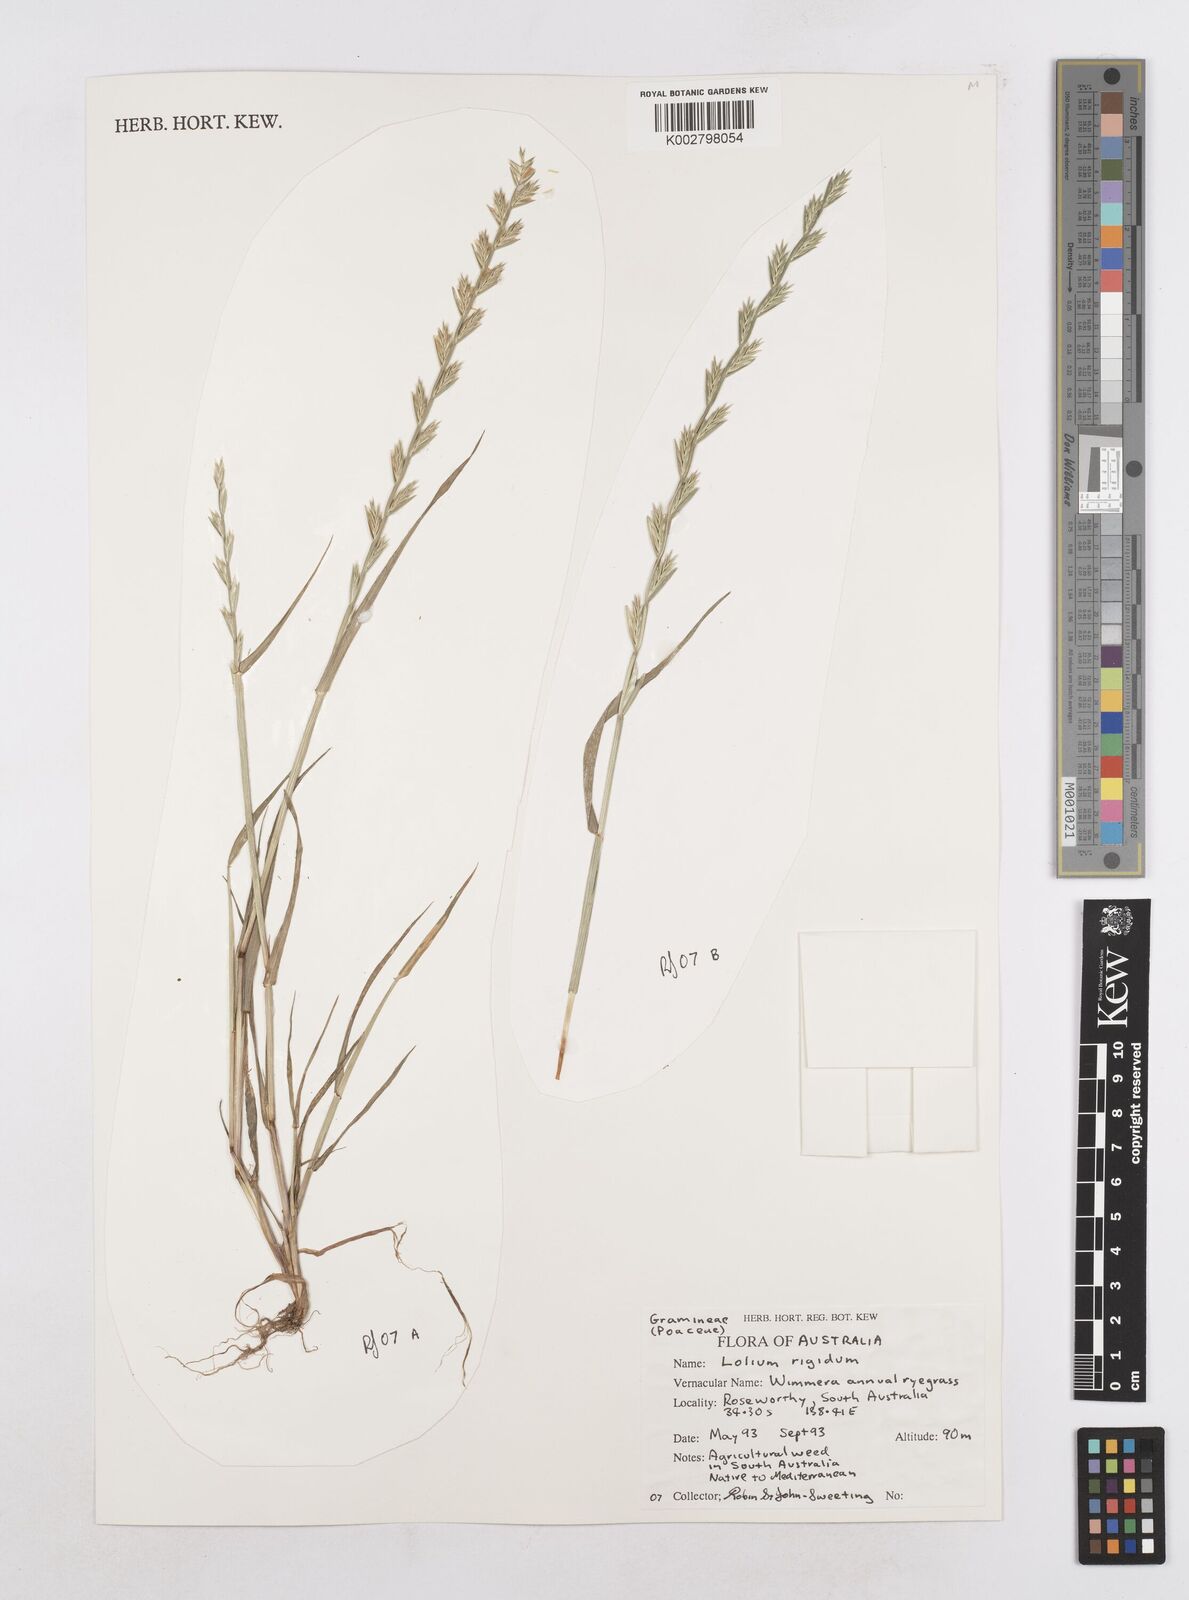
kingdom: Plantae
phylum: Tracheophyta
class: Liliopsida
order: Poales
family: Poaceae
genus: Lolium
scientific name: Lolium
